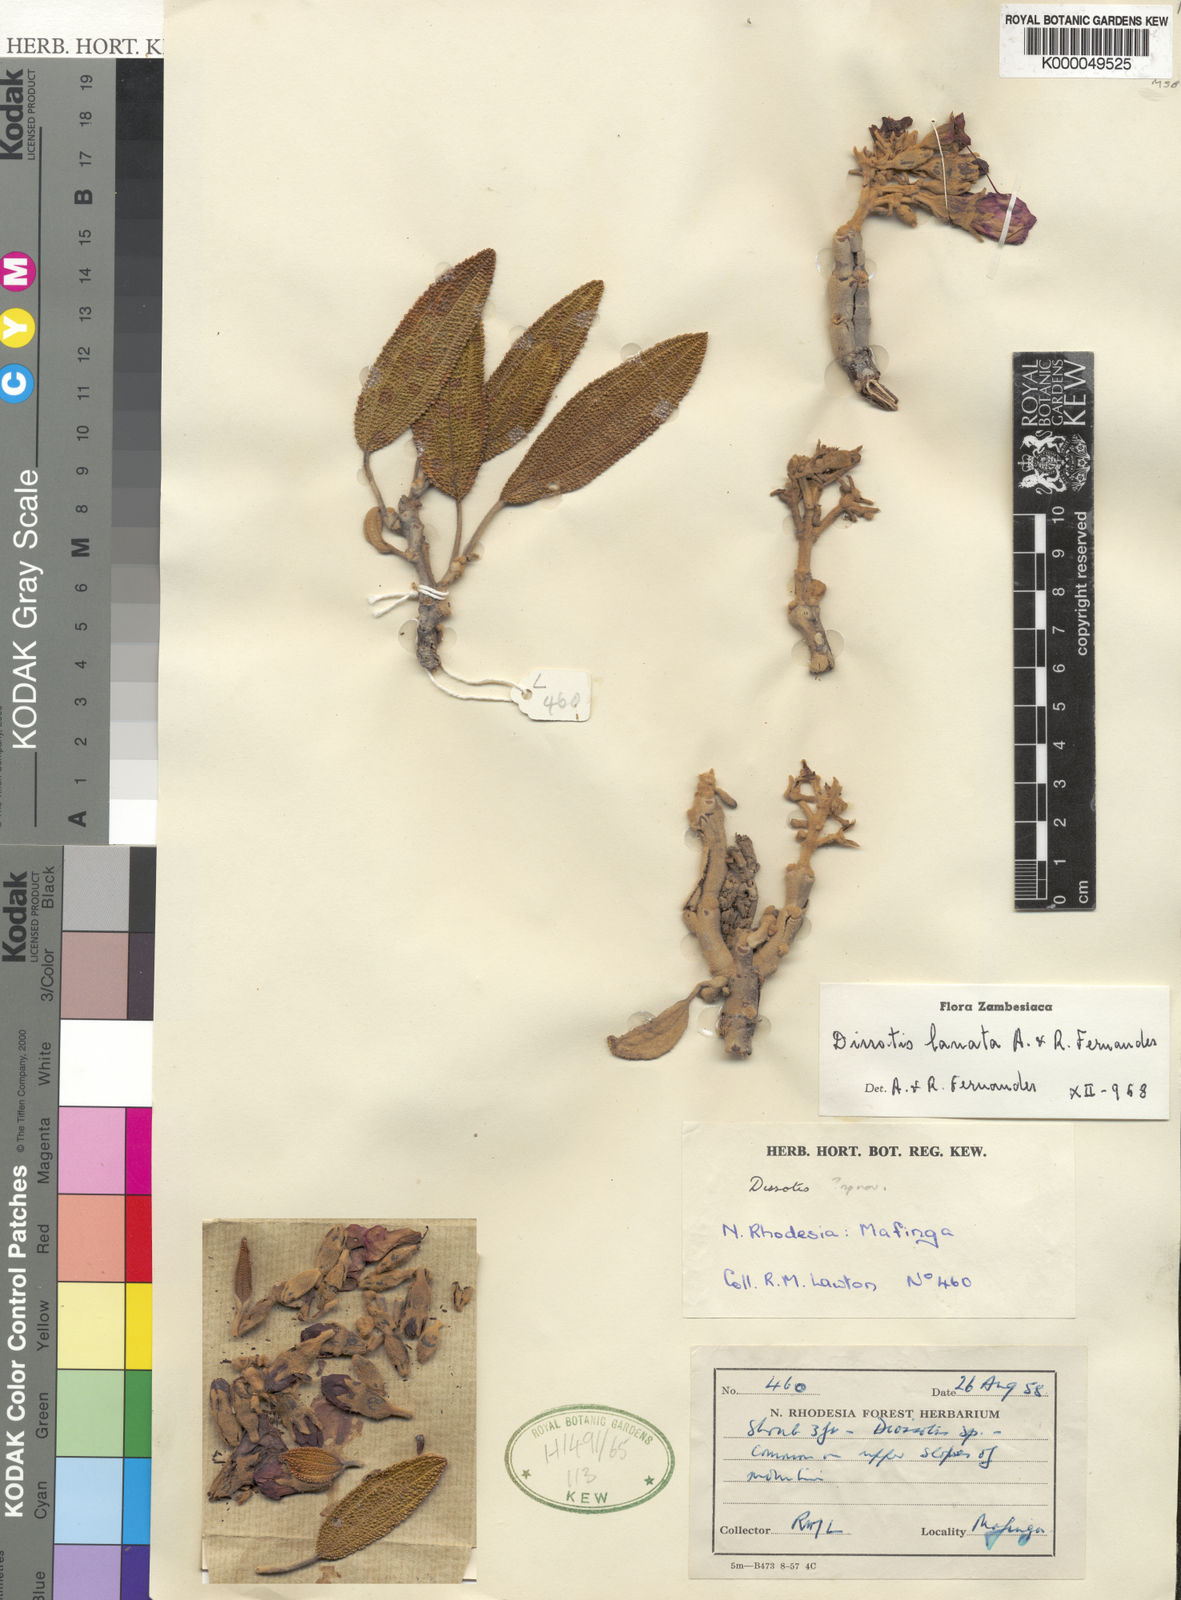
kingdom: Plantae
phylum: Tracheophyta
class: Magnoliopsida
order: Myrtales
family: Melastomataceae
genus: Dissotidendron
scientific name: Dissotidendron lanatum
